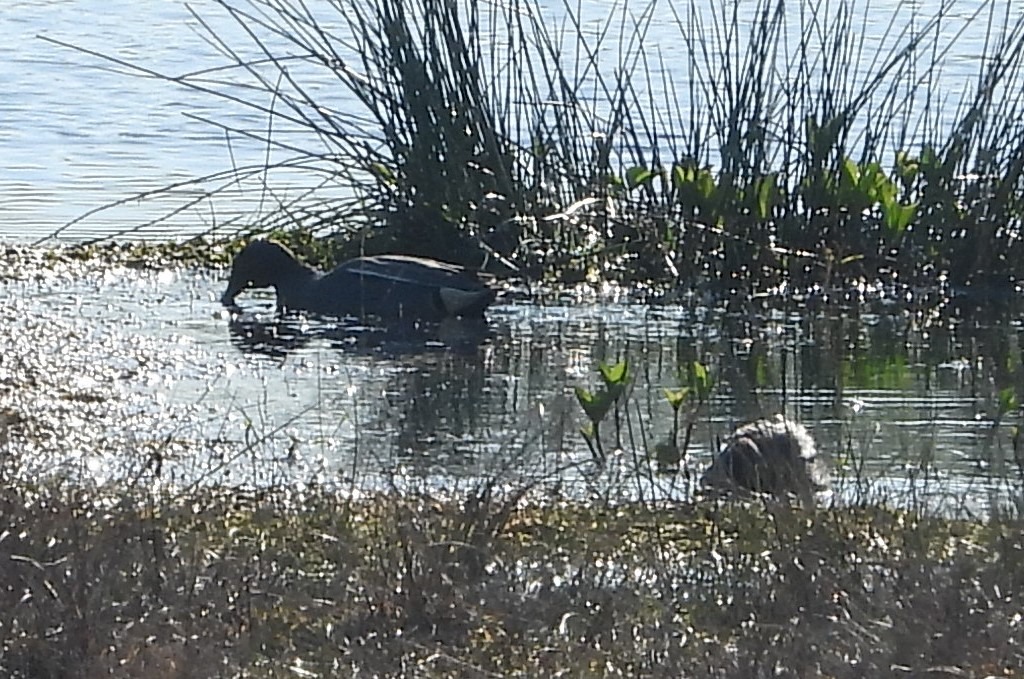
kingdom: Animalia
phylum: Chordata
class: Aves
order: Anseriformes
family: Anatidae
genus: Anas
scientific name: Anas crecca
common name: Krikand
